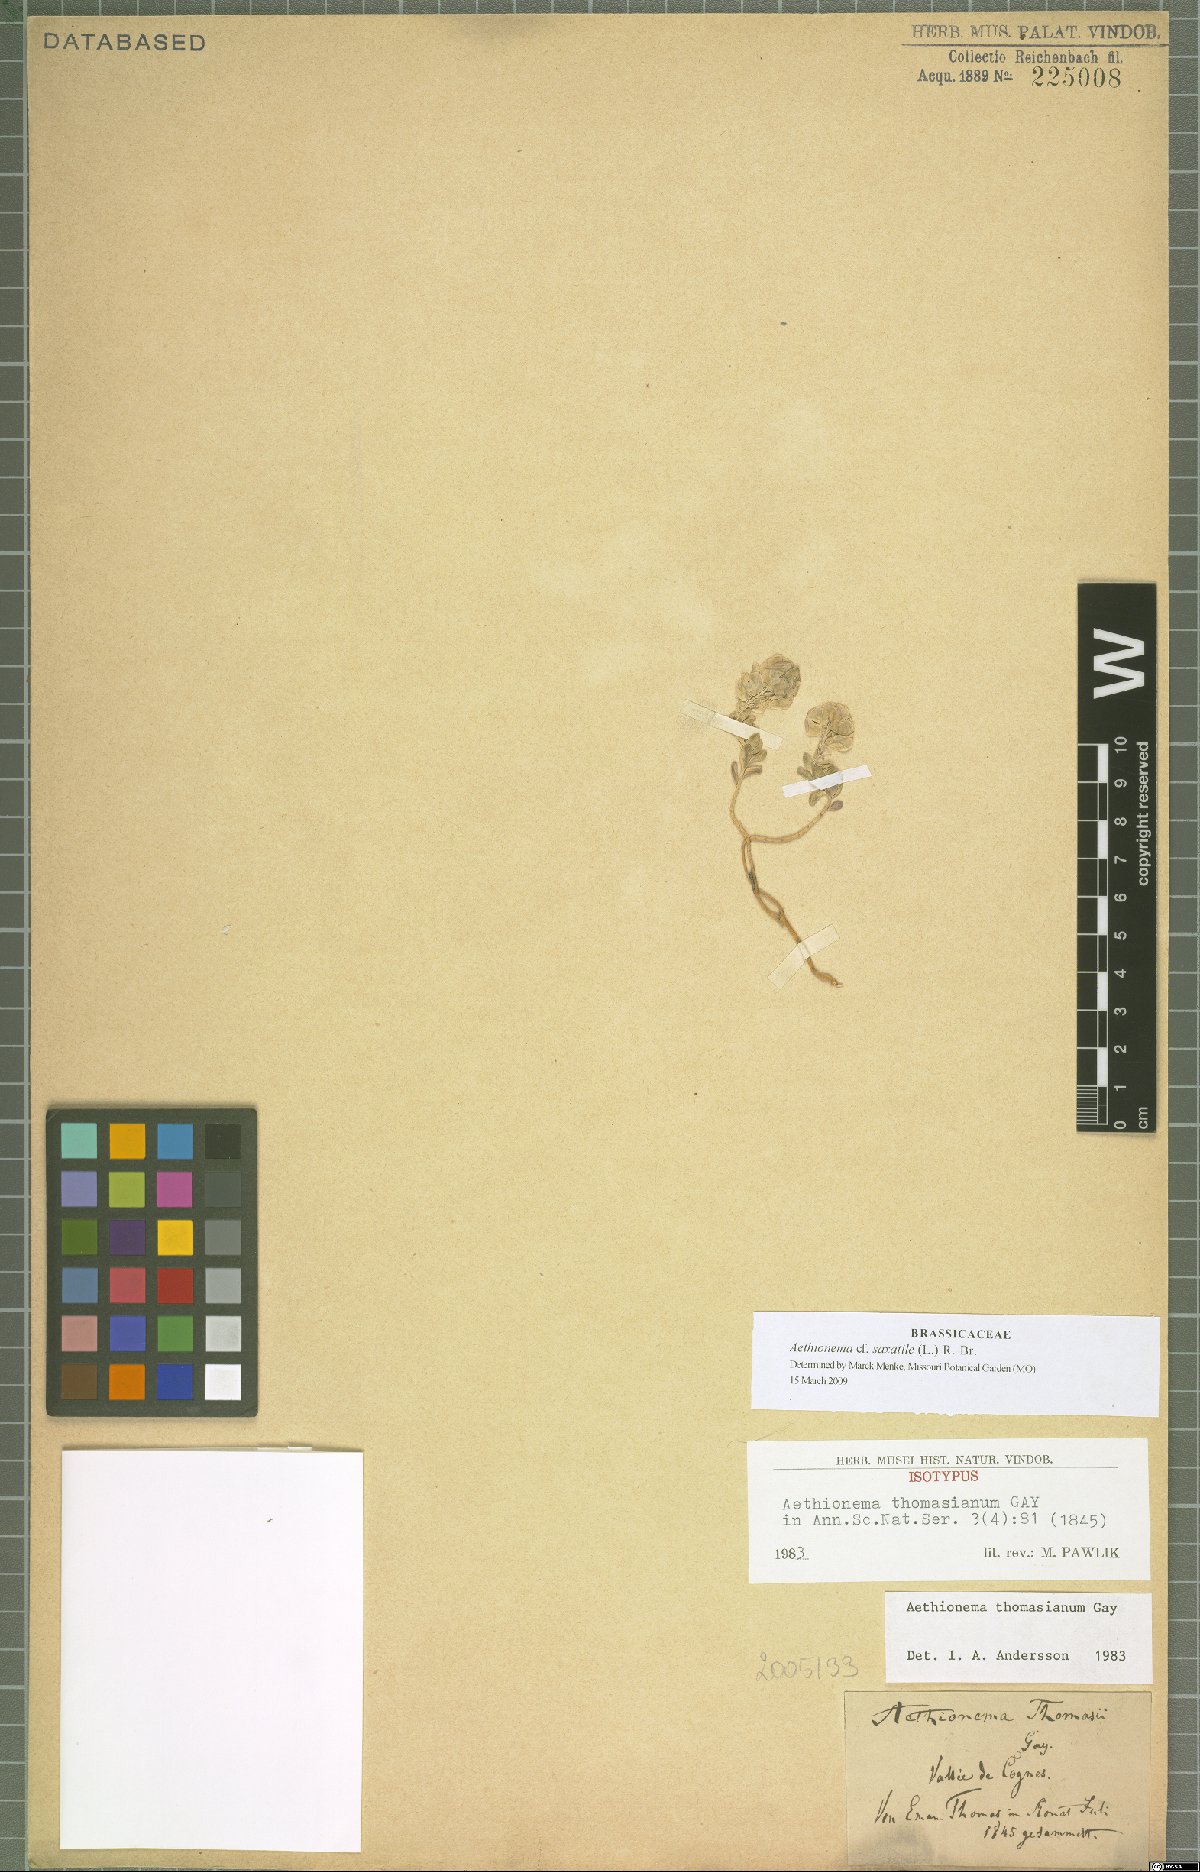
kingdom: Plantae
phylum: Tracheophyta
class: Magnoliopsida
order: Brassicales
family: Brassicaceae
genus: Aethionema
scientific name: Aethionema saxatile
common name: Burnt candytuft
